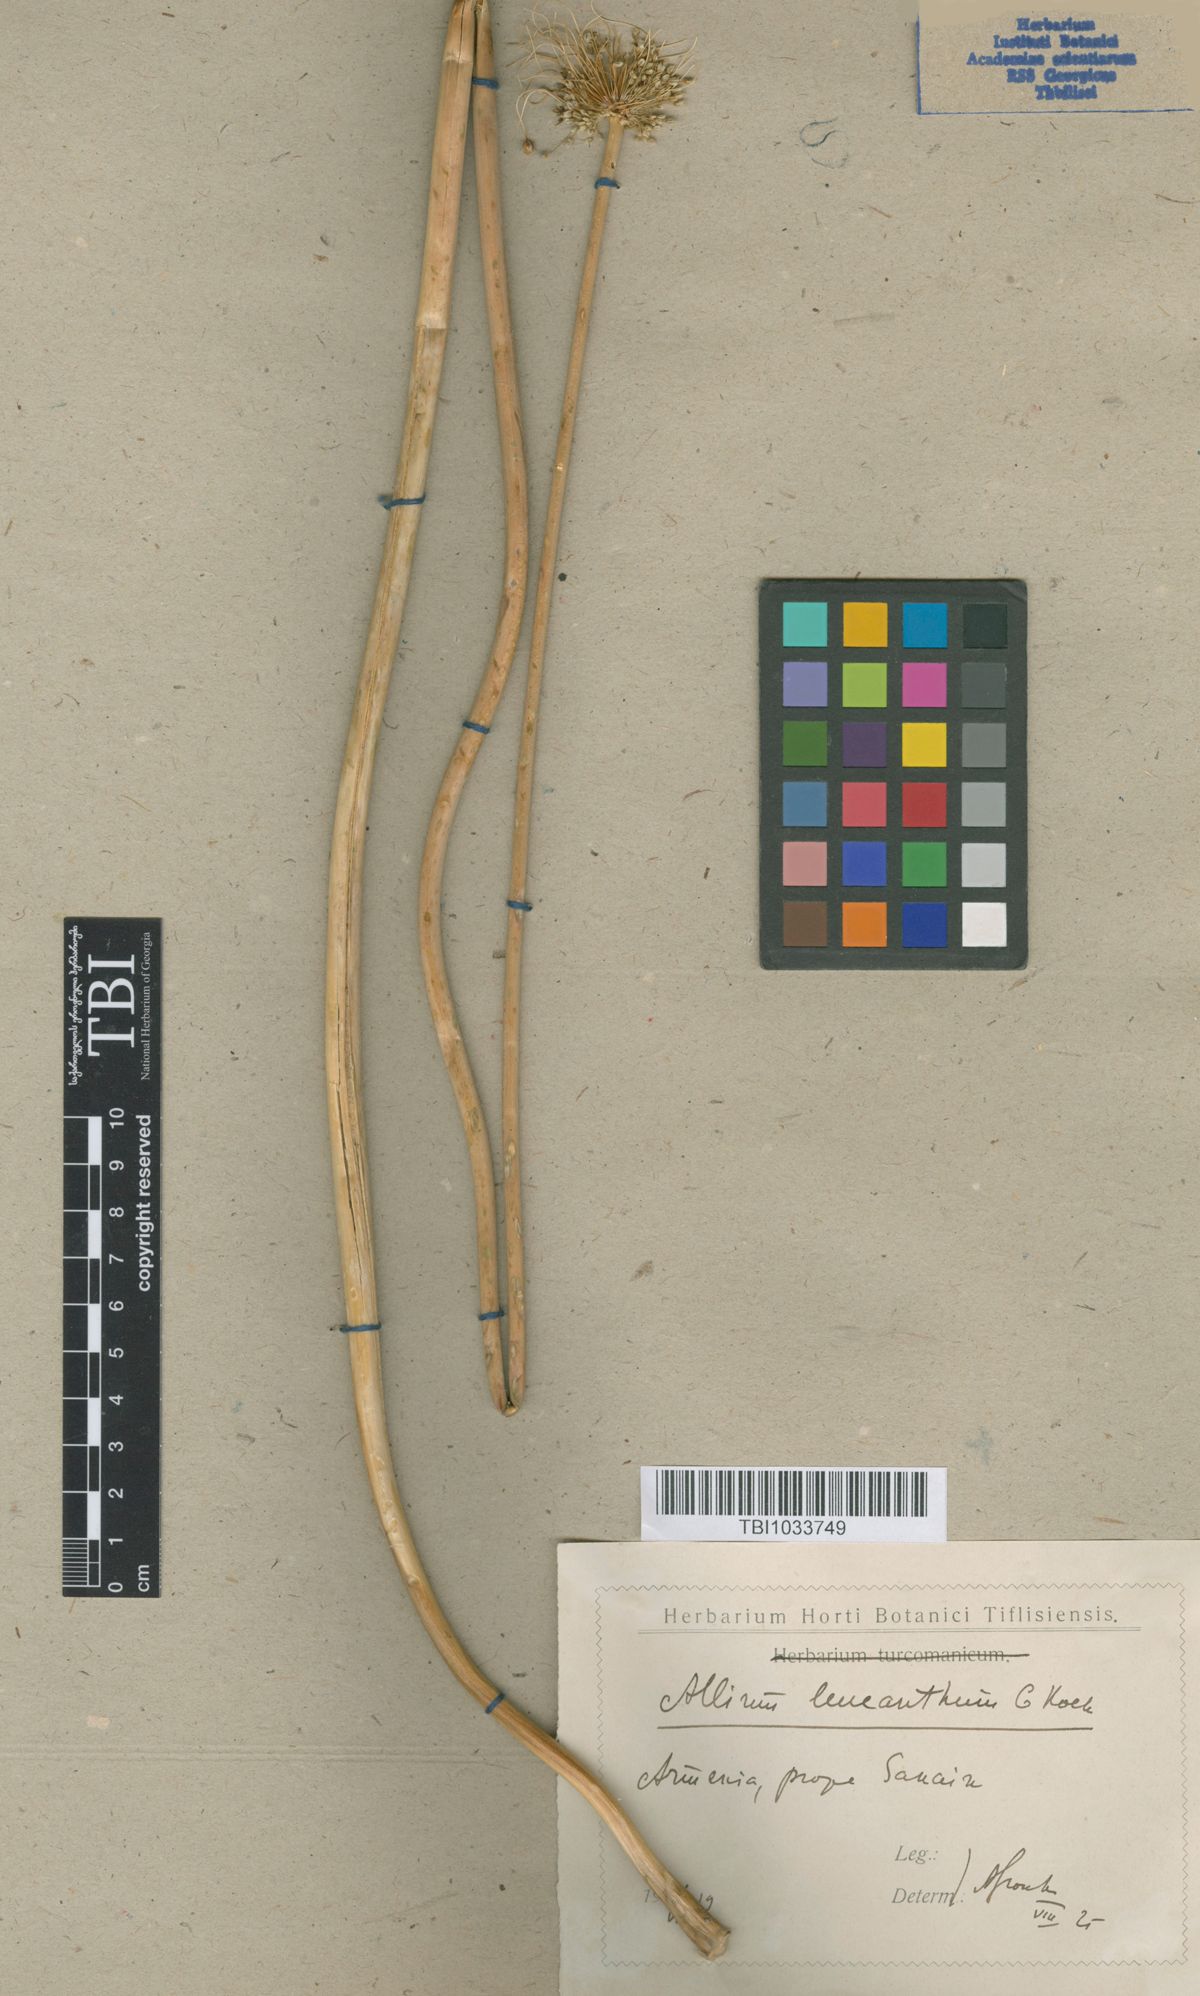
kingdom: Plantae
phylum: Tracheophyta
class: Liliopsida
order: Asparagales
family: Amaryllidaceae
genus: Allium
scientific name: Allium ampeloprasum
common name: Wild leek
